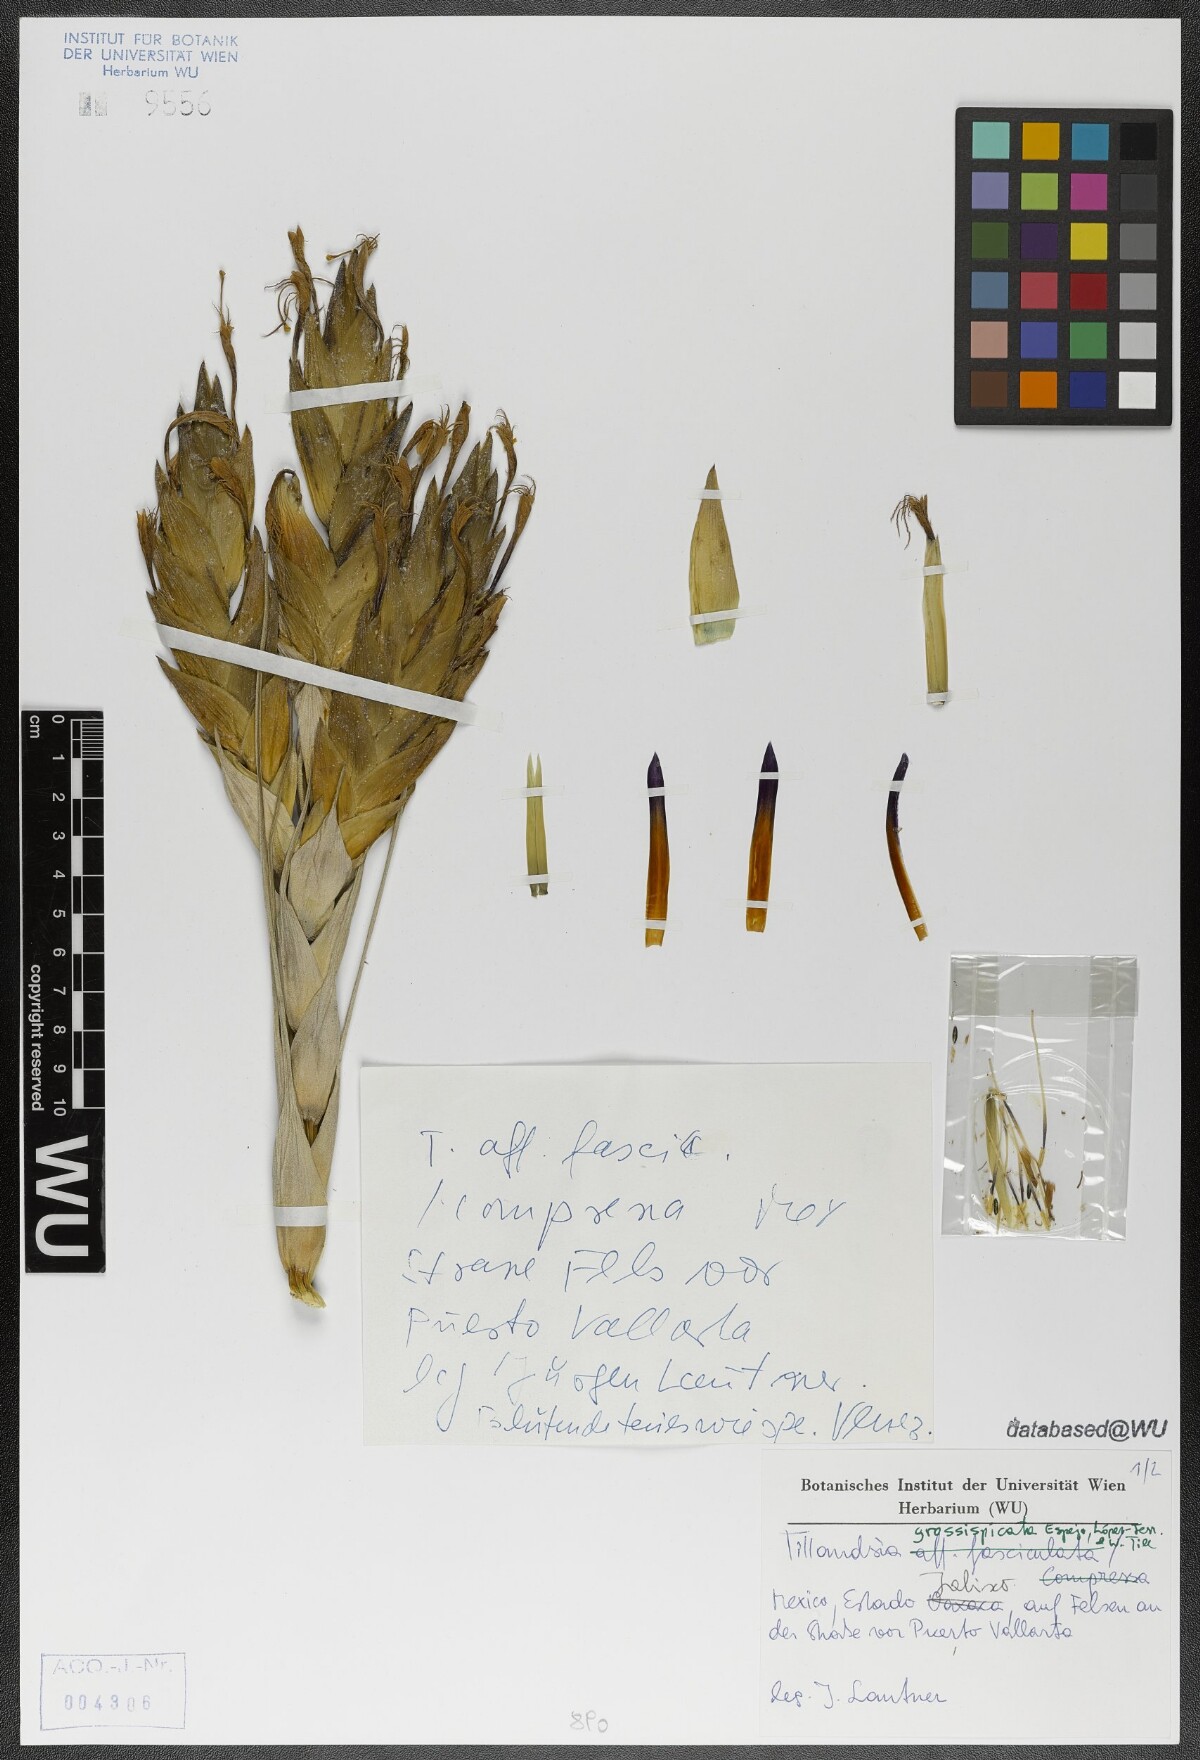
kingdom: Plantae
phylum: Tracheophyta
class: Liliopsida
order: Poales
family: Bromeliaceae
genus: Tillandsia
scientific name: Tillandsia grossispicata
